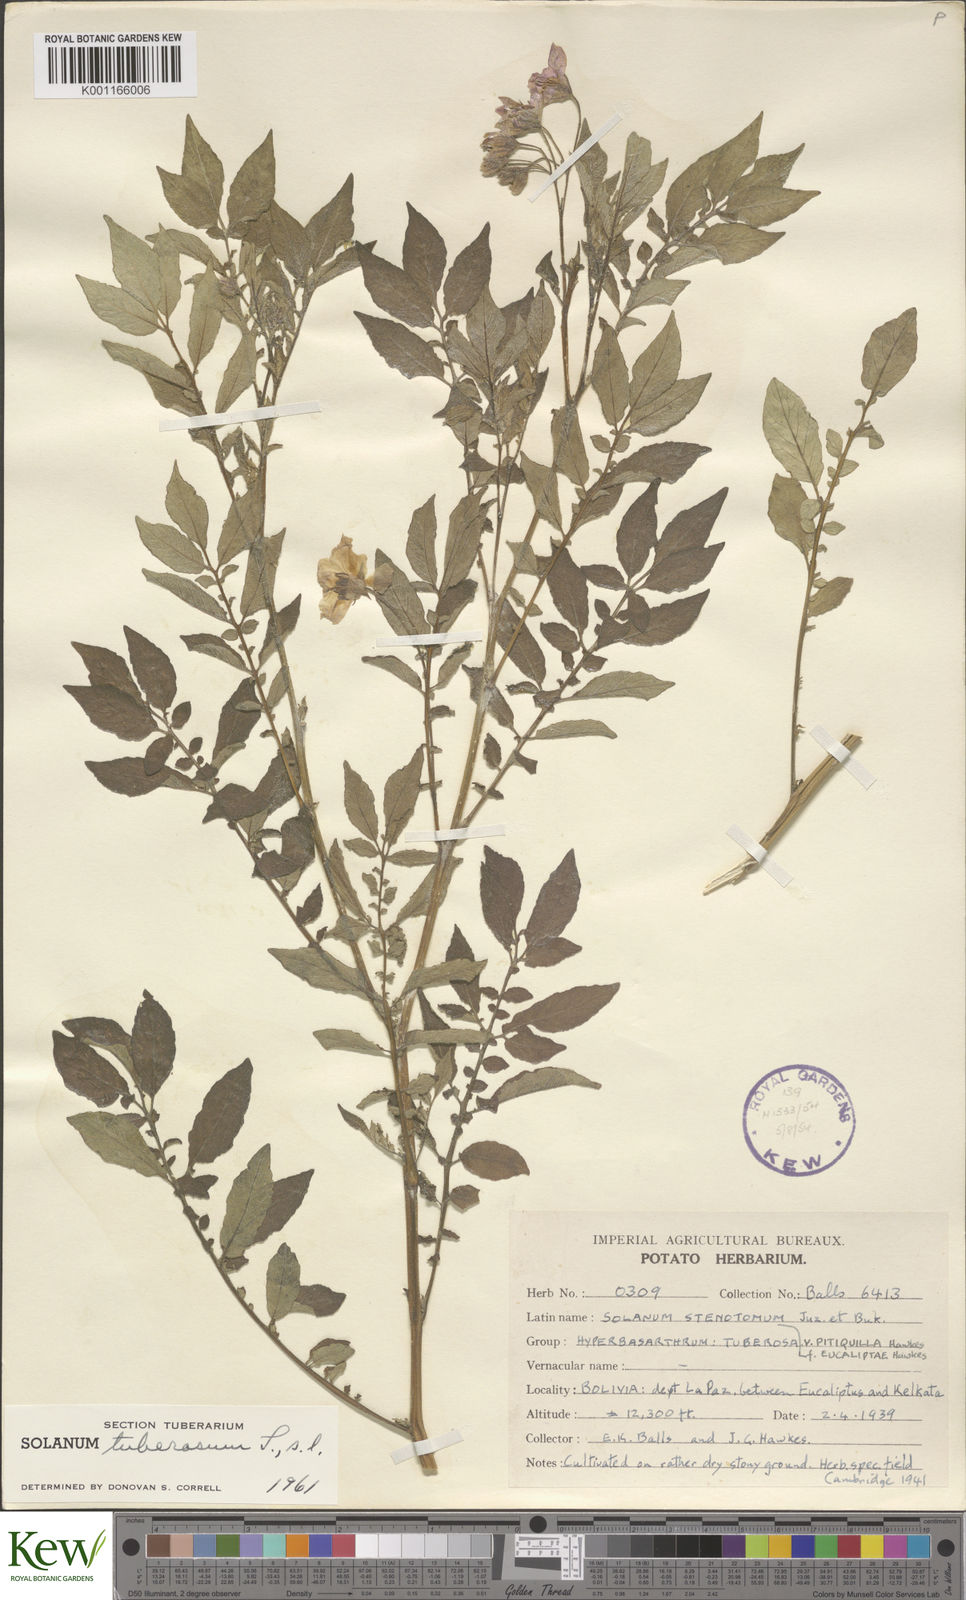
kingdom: Plantae
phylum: Tracheophyta
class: Magnoliopsida
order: Solanales
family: Solanaceae
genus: Solanum
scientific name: Solanum tuberosum
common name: Potato
